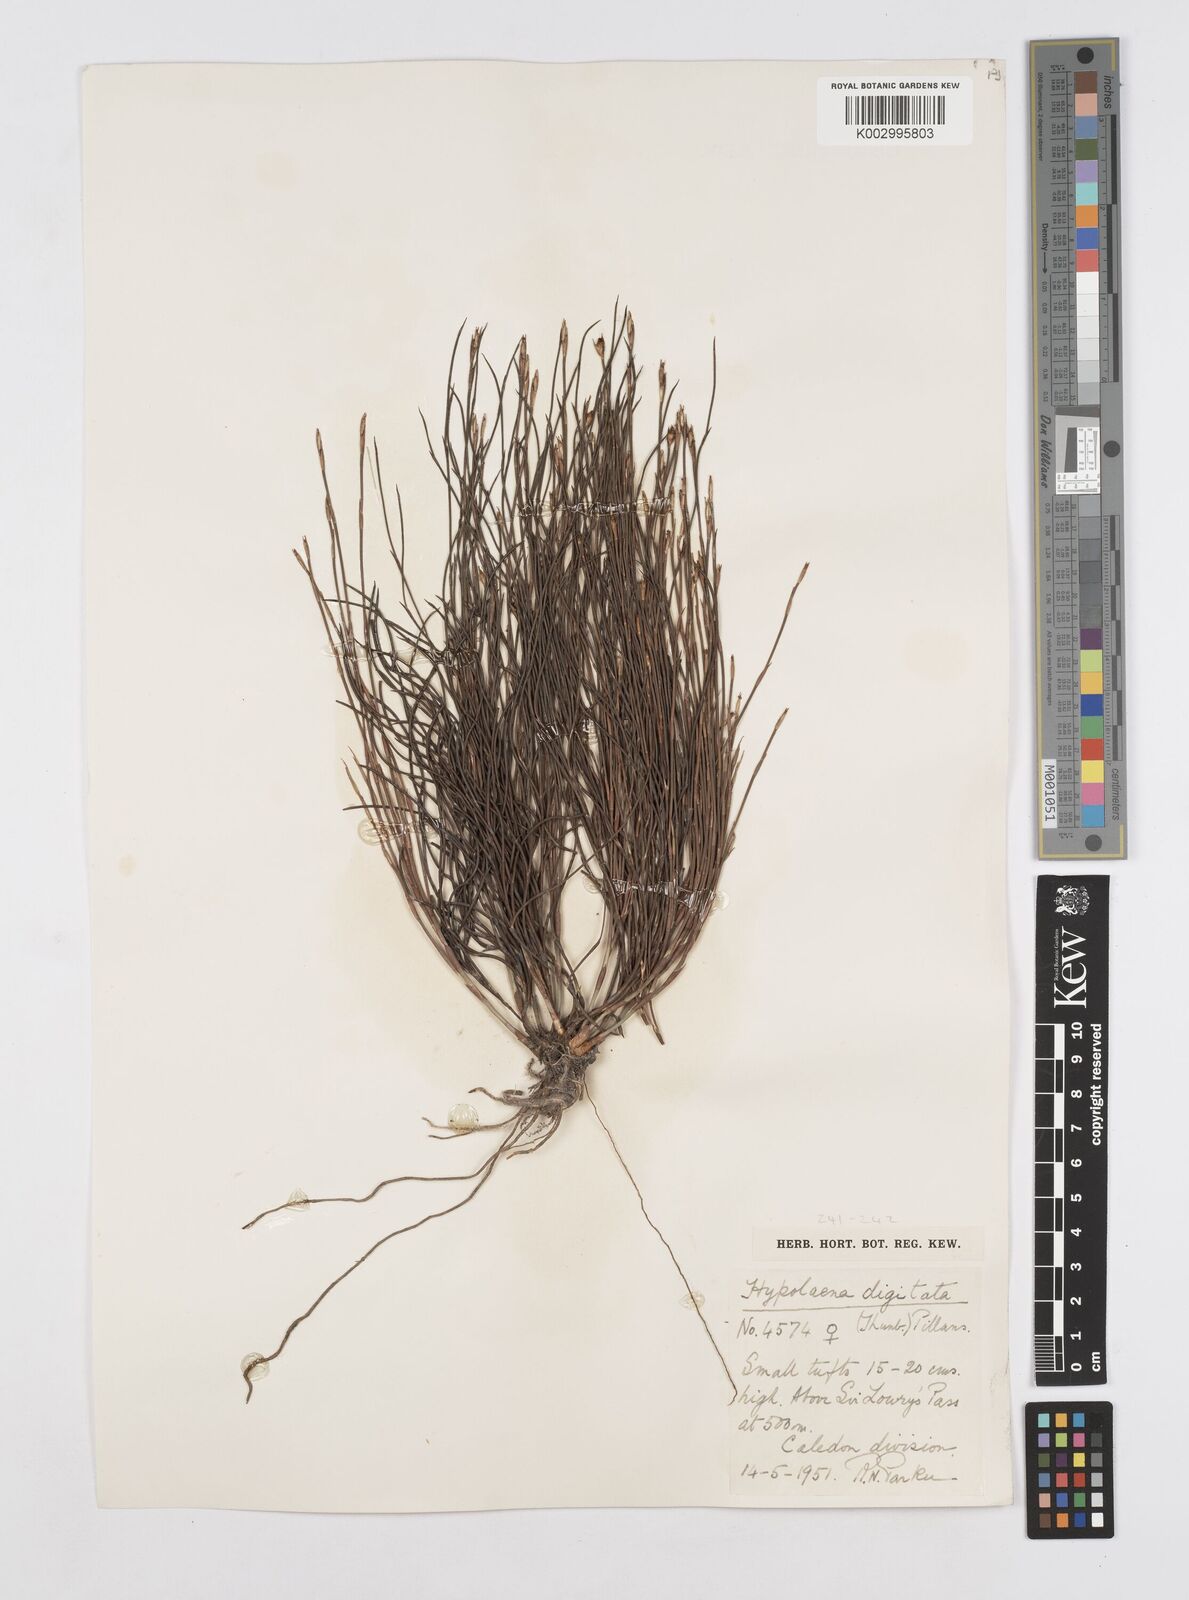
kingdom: Plantae
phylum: Tracheophyta
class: Liliopsida
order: Poales
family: Restionaceae
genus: Mastersiella
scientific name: Mastersiella digitata
